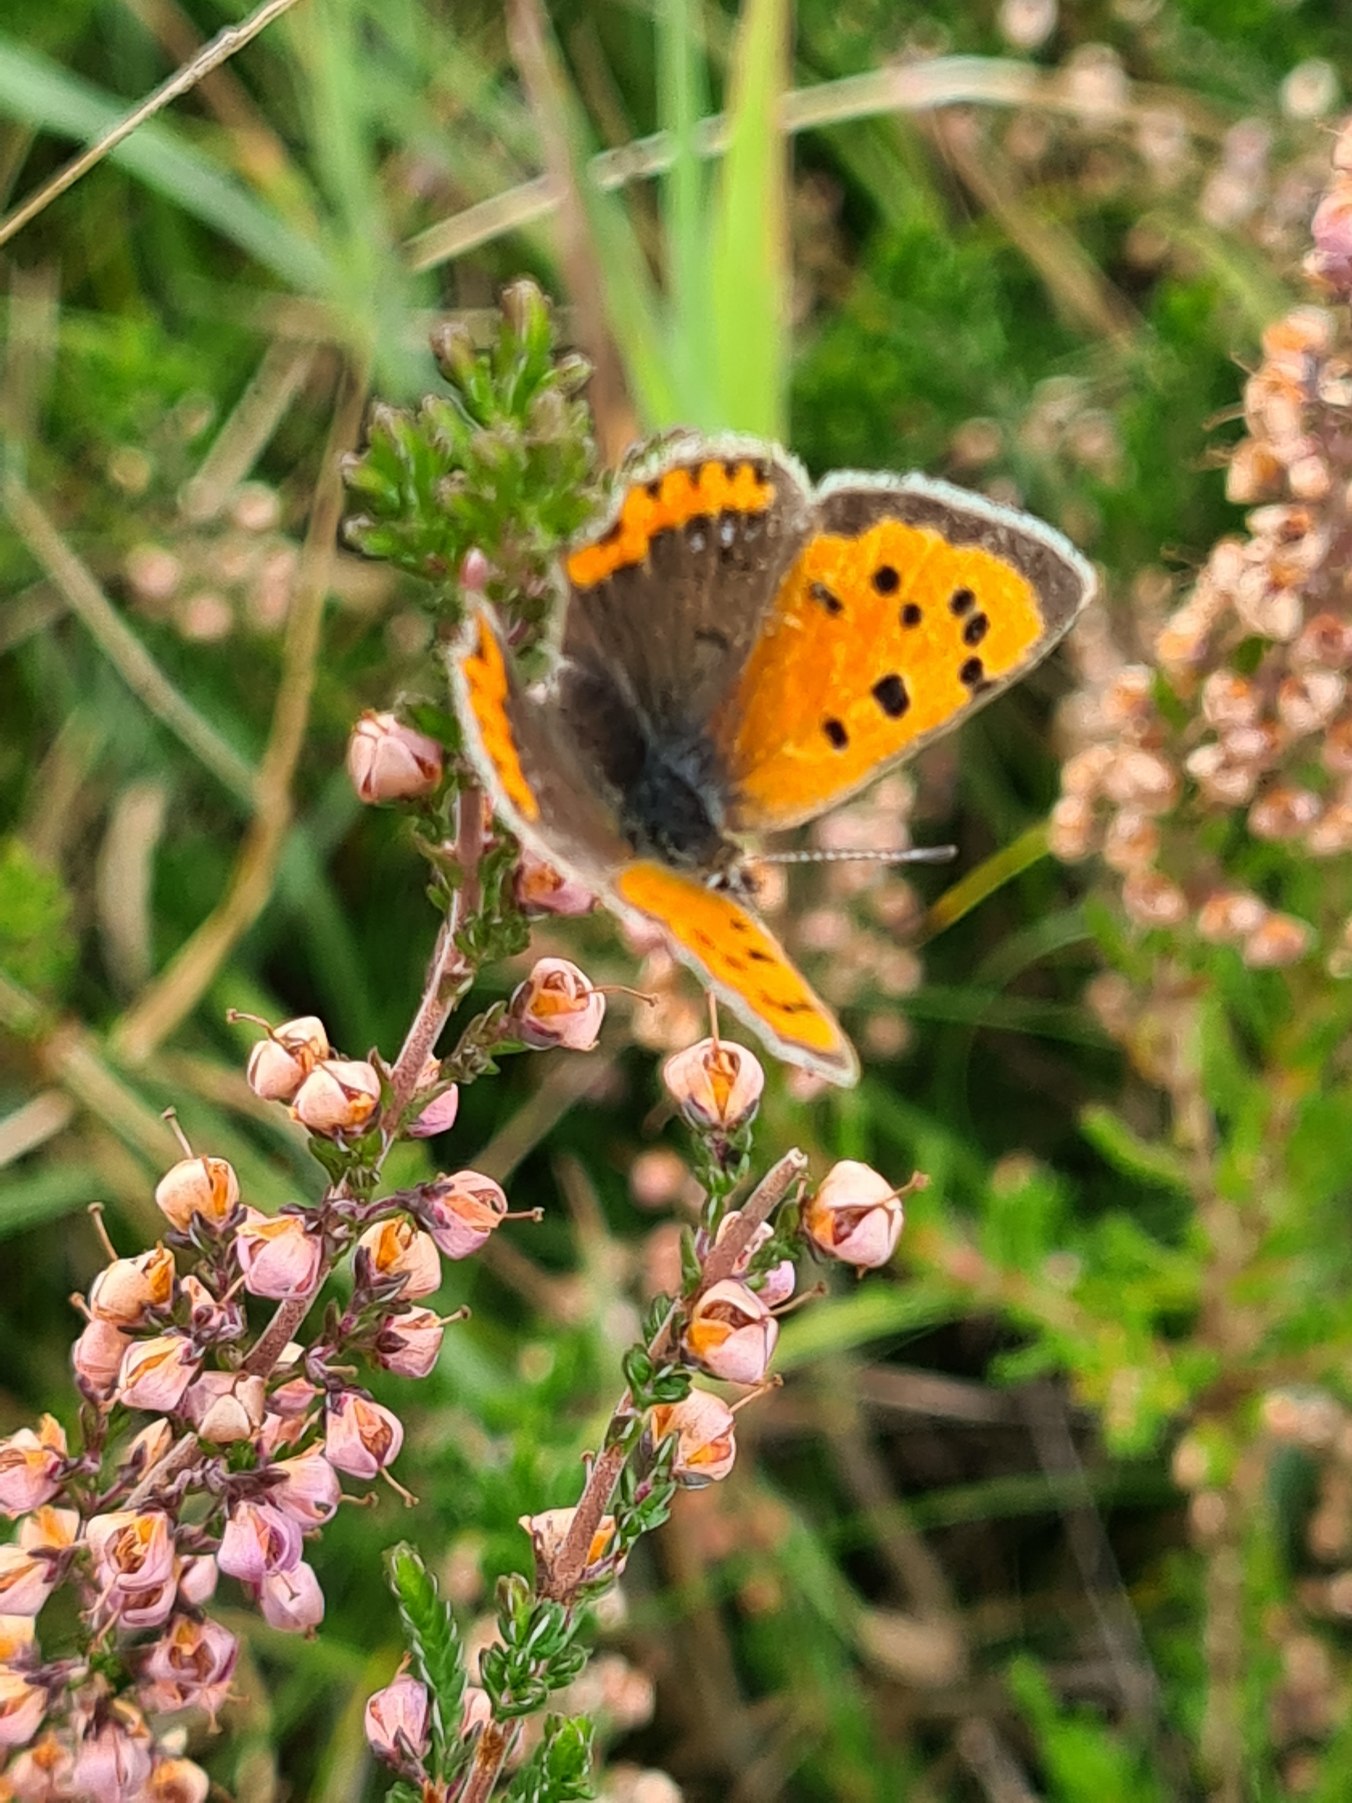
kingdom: Animalia
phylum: Arthropoda
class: Insecta
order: Lepidoptera
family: Lycaenidae
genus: Lycaena
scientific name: Lycaena phlaeas
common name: Lille ildfugl
